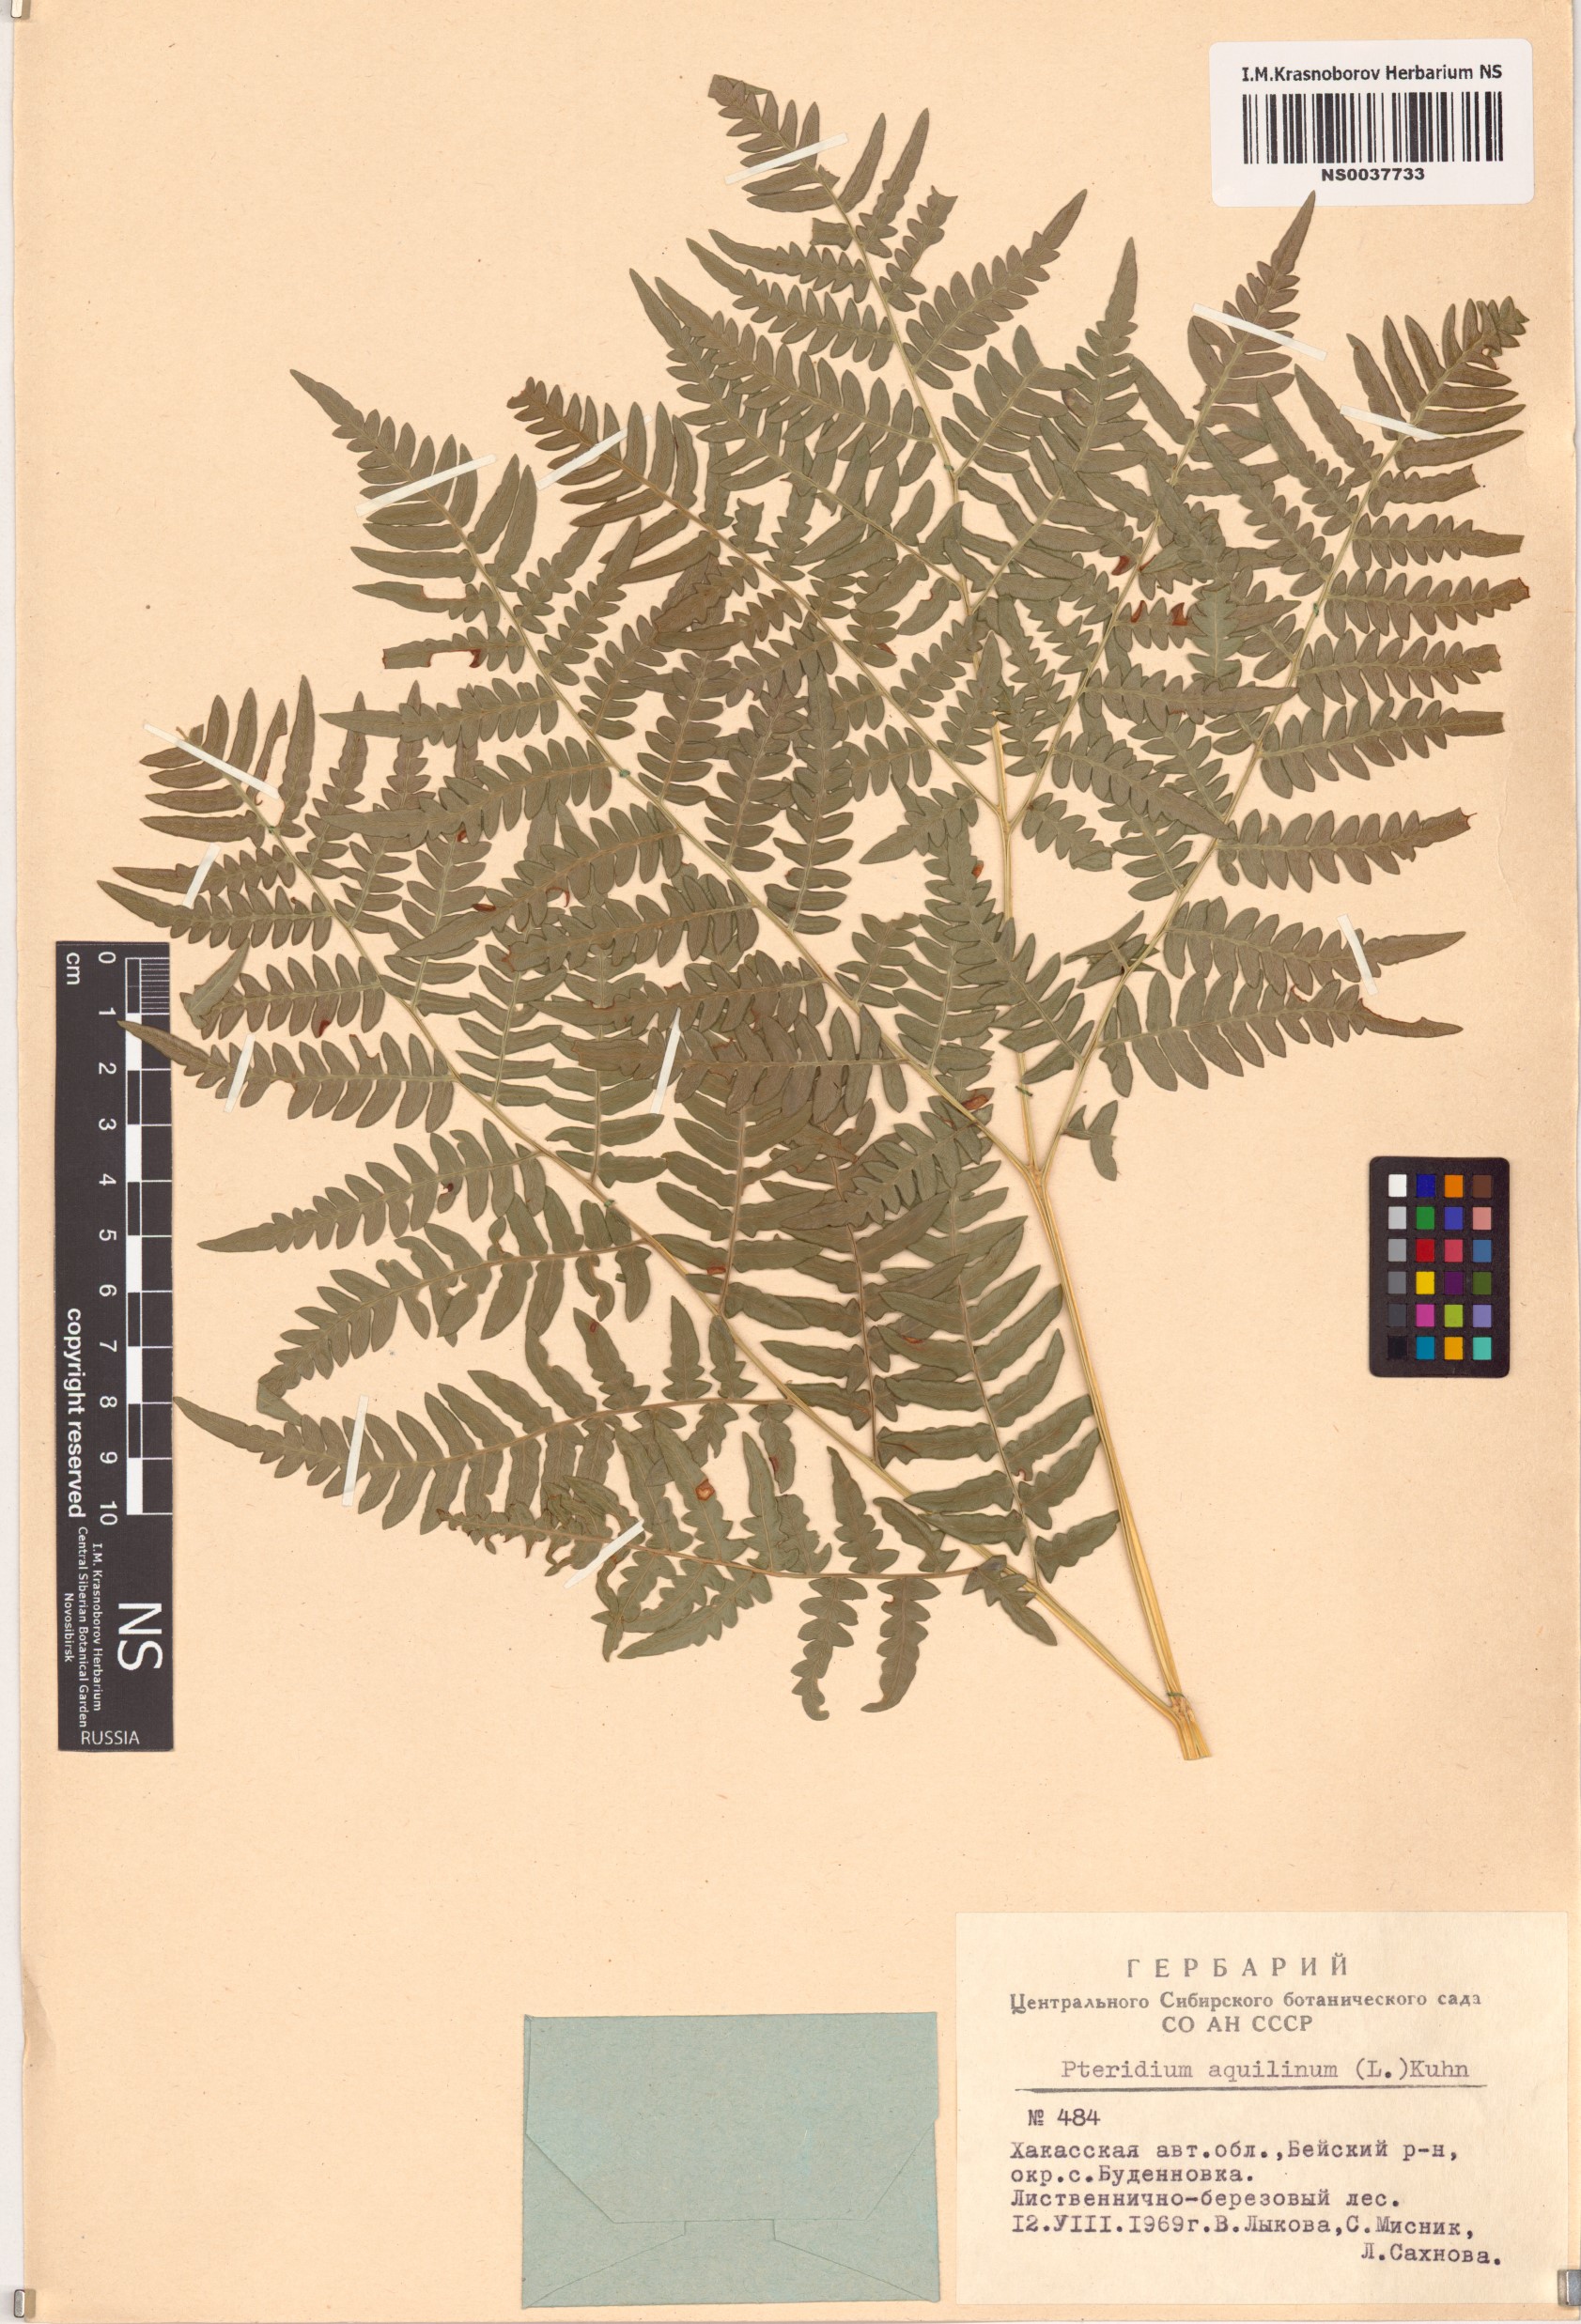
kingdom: Plantae
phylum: Tracheophyta
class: Polypodiopsida
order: Polypodiales
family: Dennstaedtiaceae
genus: Pteridium
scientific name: Pteridium aquilinum
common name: Bracken
